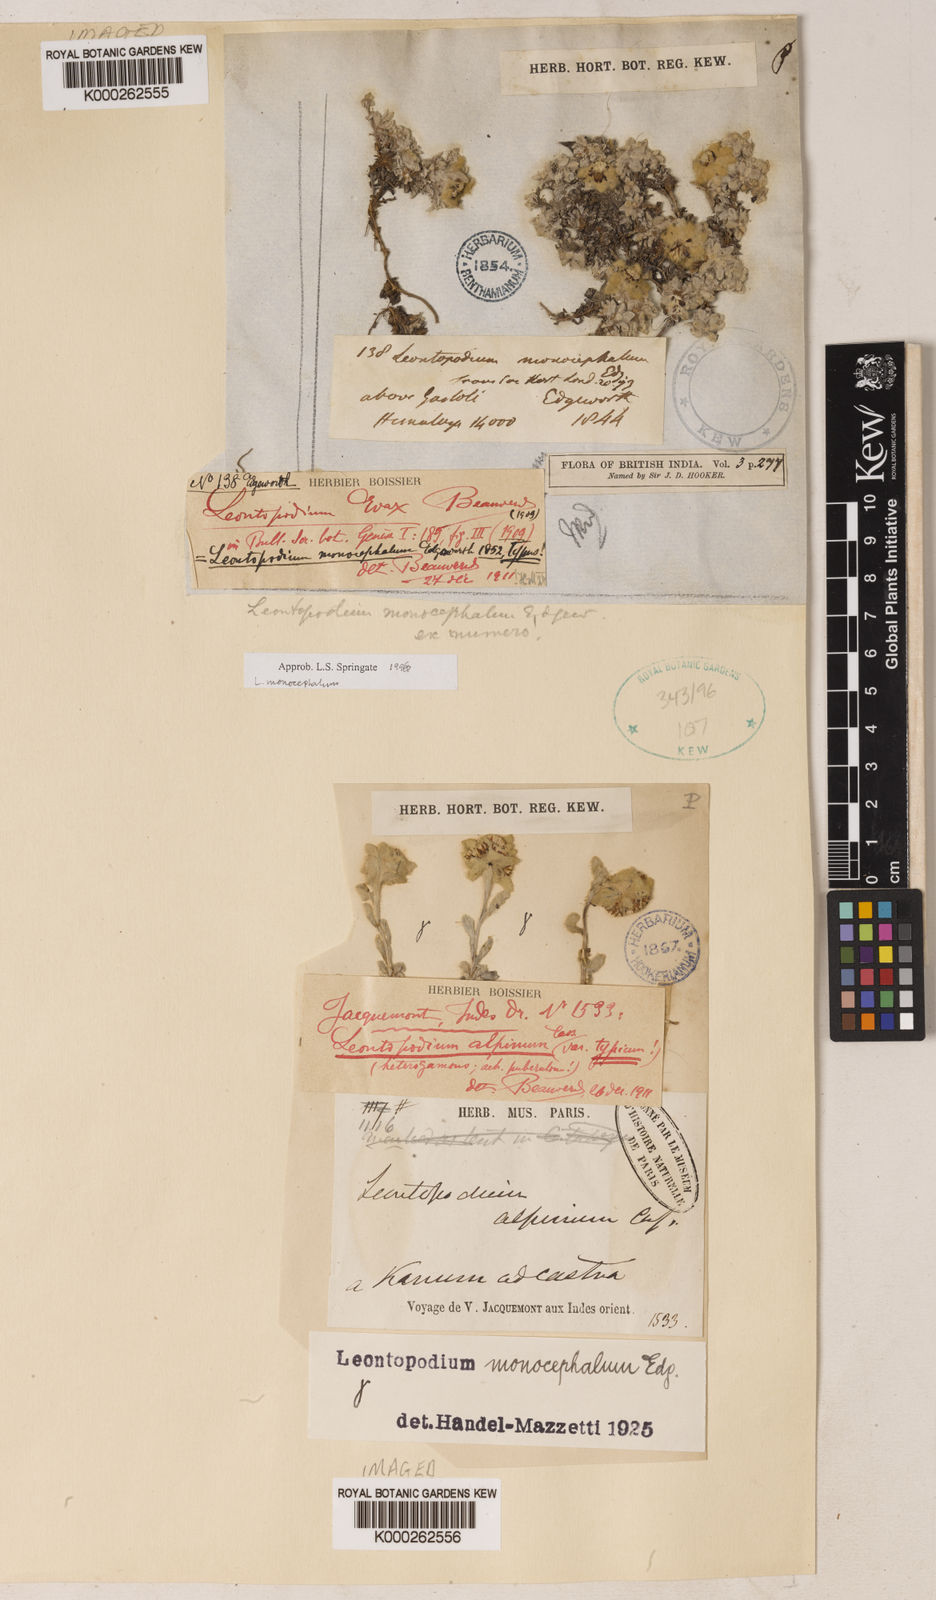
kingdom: Plantae
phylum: Tracheophyta
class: Magnoliopsida
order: Asterales
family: Asteraceae
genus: Leontopodium
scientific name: Leontopodium monocephalum
